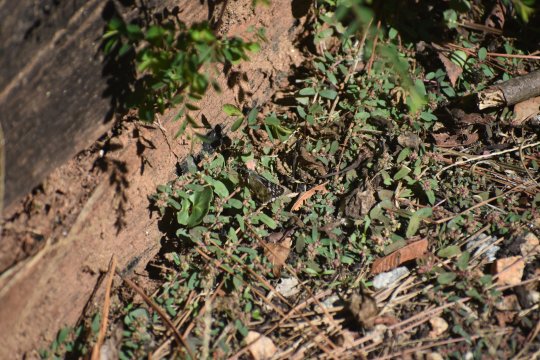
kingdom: Animalia
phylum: Arthropoda
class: Insecta
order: Lepidoptera
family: Hesperiidae
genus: Pyrgus
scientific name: Pyrgus
